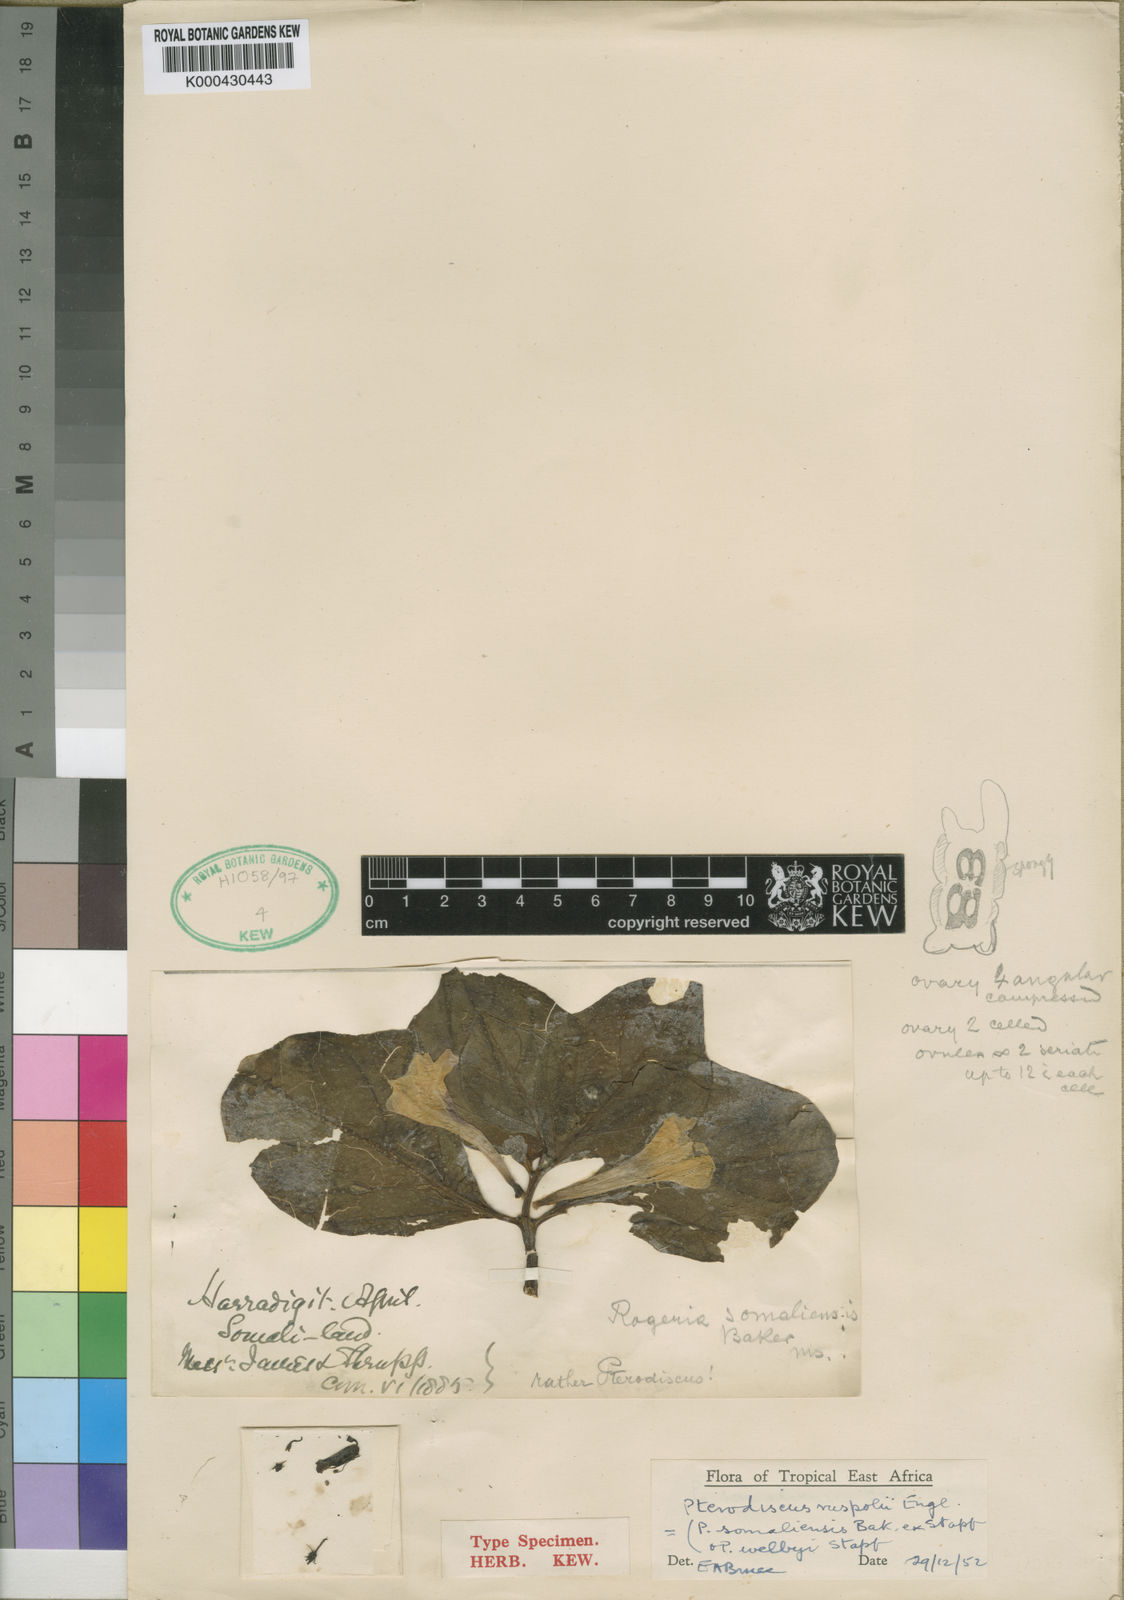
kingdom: Plantae
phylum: Tracheophyta
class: Magnoliopsida
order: Lamiales
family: Pedaliaceae
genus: Pterodiscus
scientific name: Pterodiscus ruspolii
